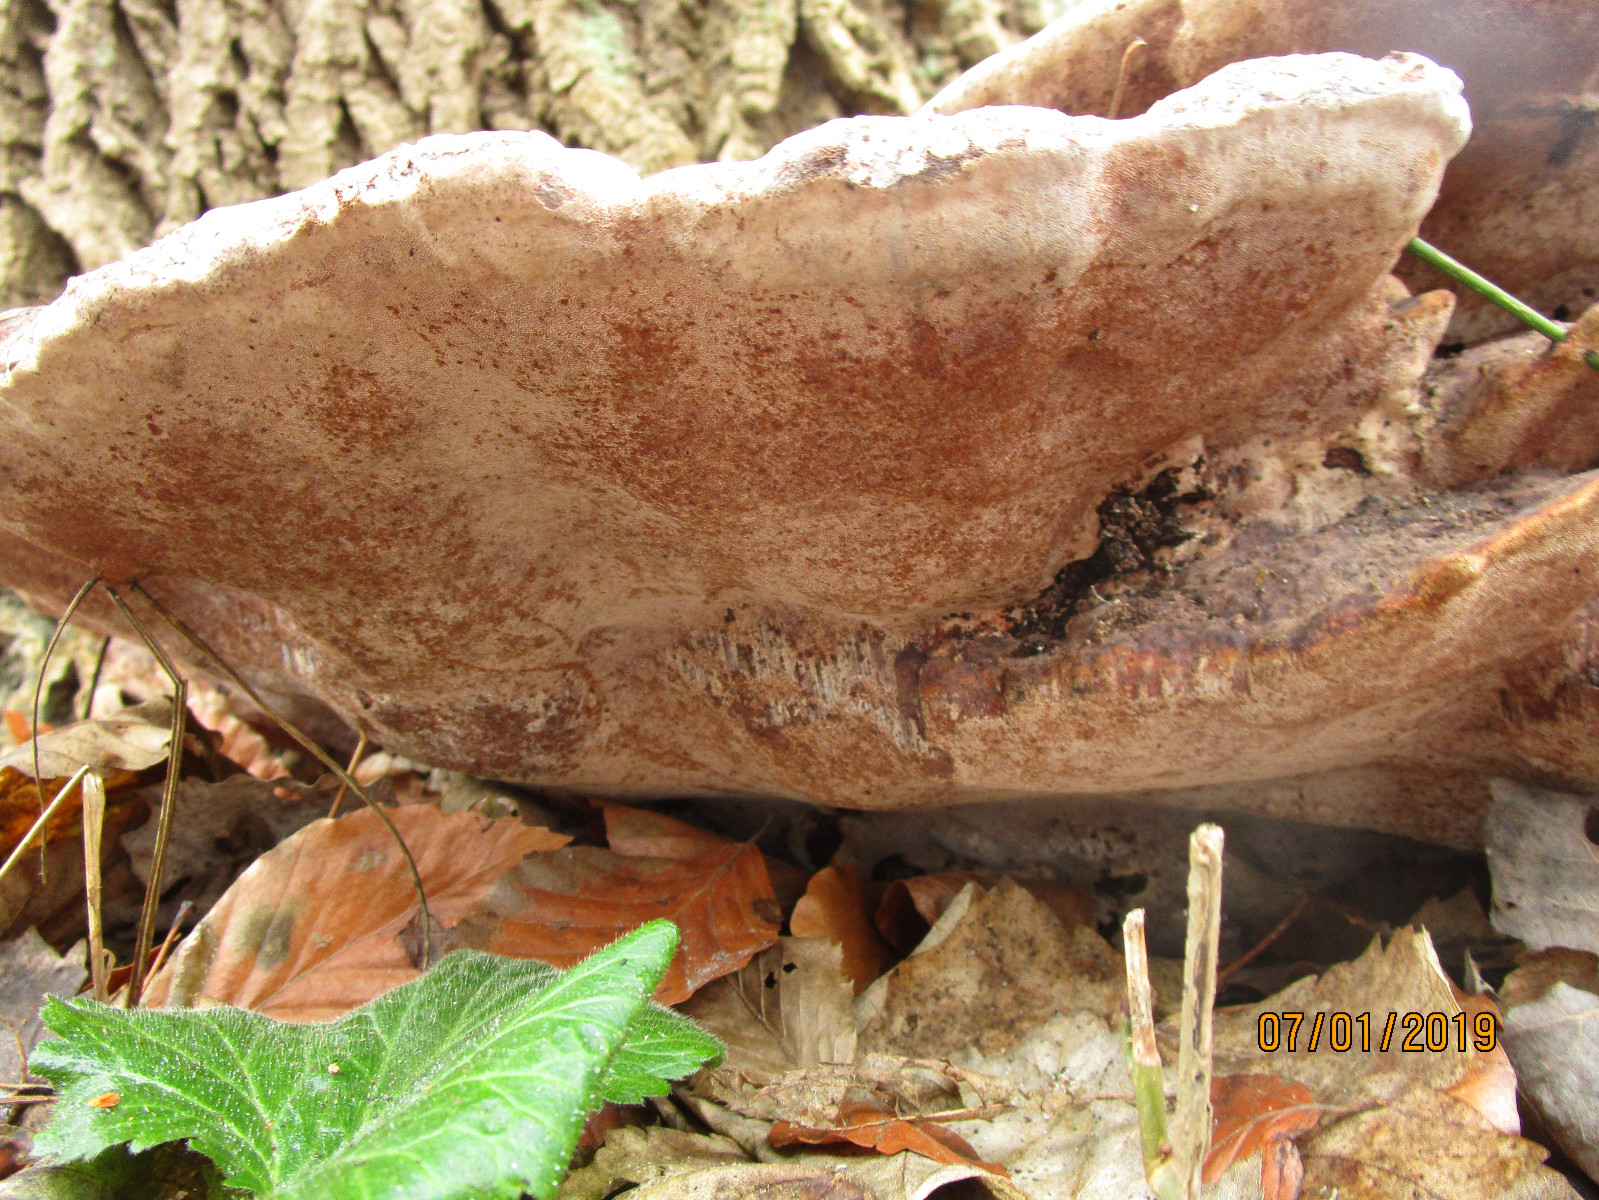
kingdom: Fungi
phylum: Basidiomycota
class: Agaricomycetes
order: Polyporales
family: Polyporaceae
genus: Vanderbylia
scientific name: Vanderbylia fraxinea
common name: stor kanelporesvamp
